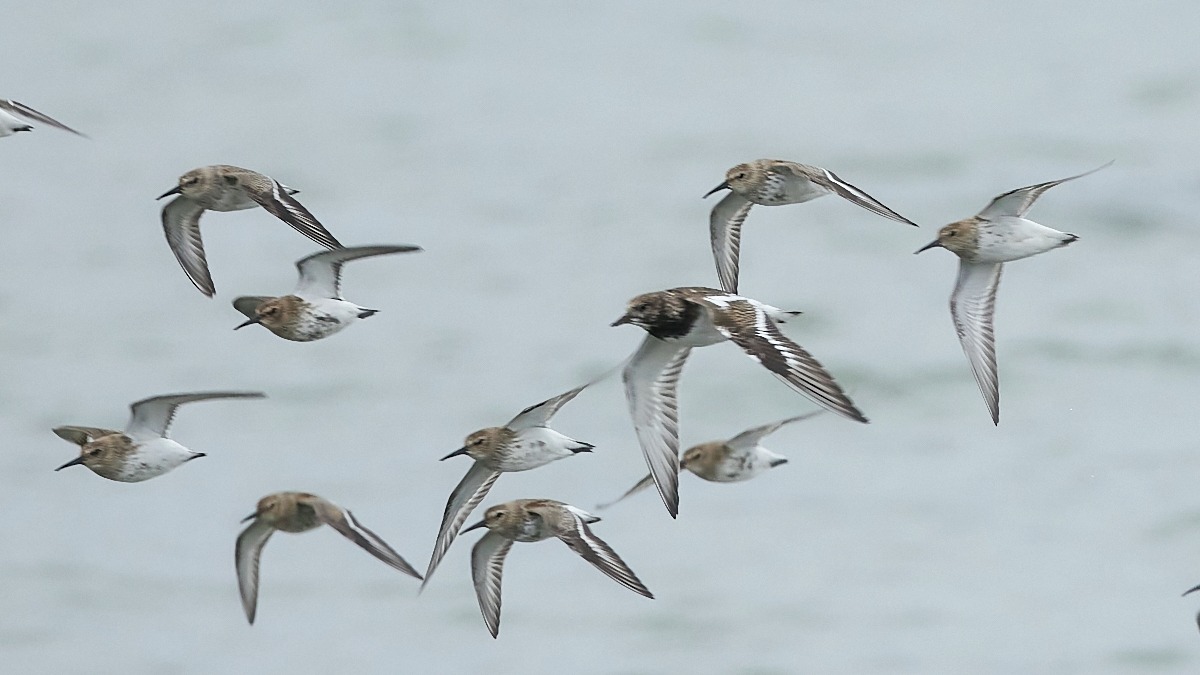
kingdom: Animalia
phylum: Chordata
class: Aves
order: Charadriiformes
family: Scolopacidae
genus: Arenaria
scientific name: Arenaria interpres
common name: Stenvender
